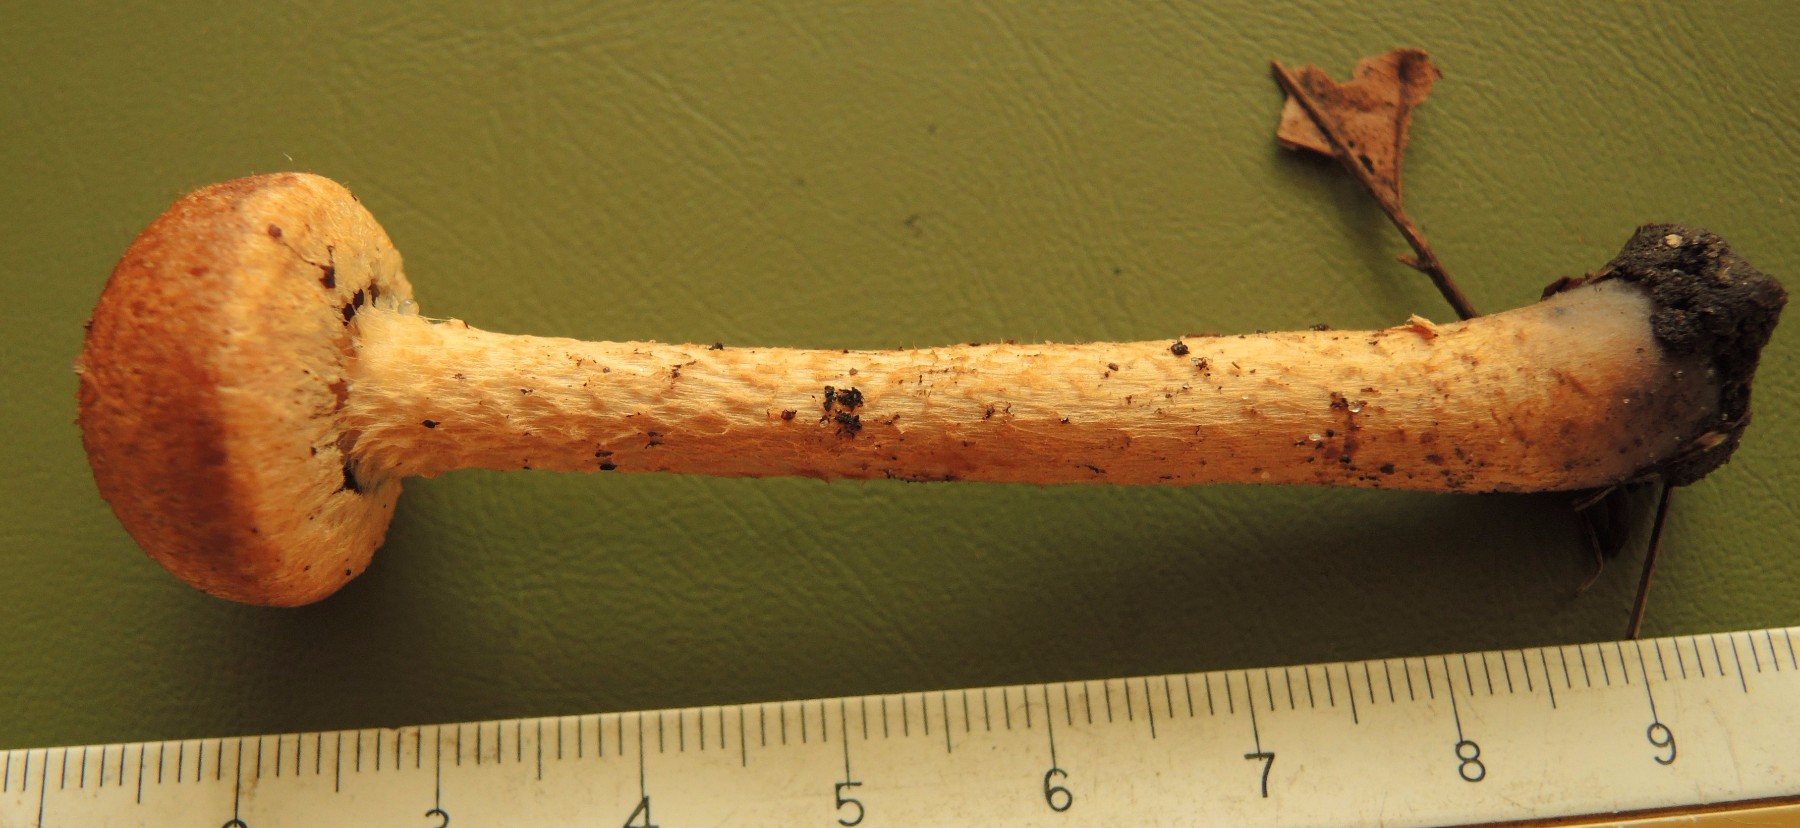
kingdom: Fungi
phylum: Basidiomycota
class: Agaricomycetes
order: Agaricales
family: Psathyrellaceae
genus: Lacrymaria
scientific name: Lacrymaria pyrotricha
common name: ildhåret mørkhat
